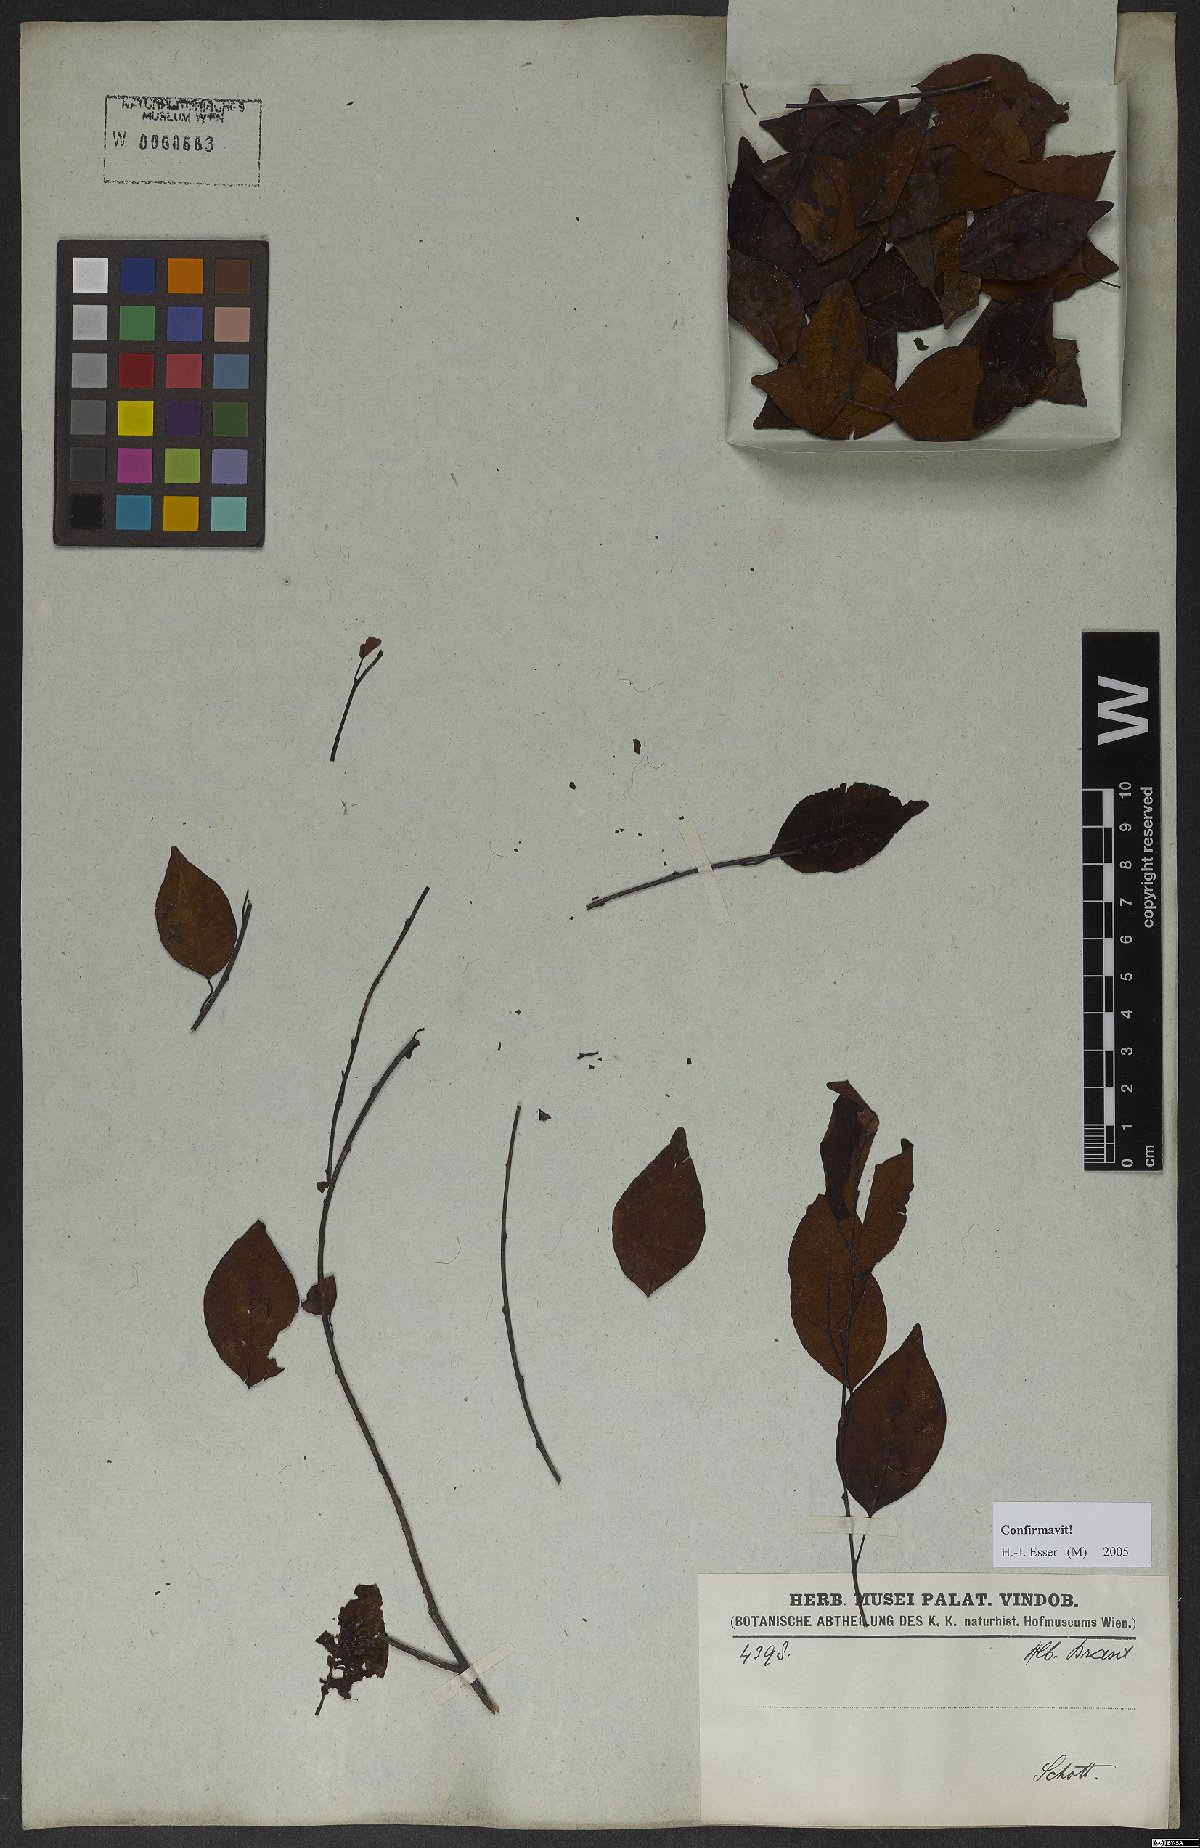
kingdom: Plantae
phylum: Tracheophyta
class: Magnoliopsida
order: Malpighiales
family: Euphorbiaceae
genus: Maprounea
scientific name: Maprounea guianensis
